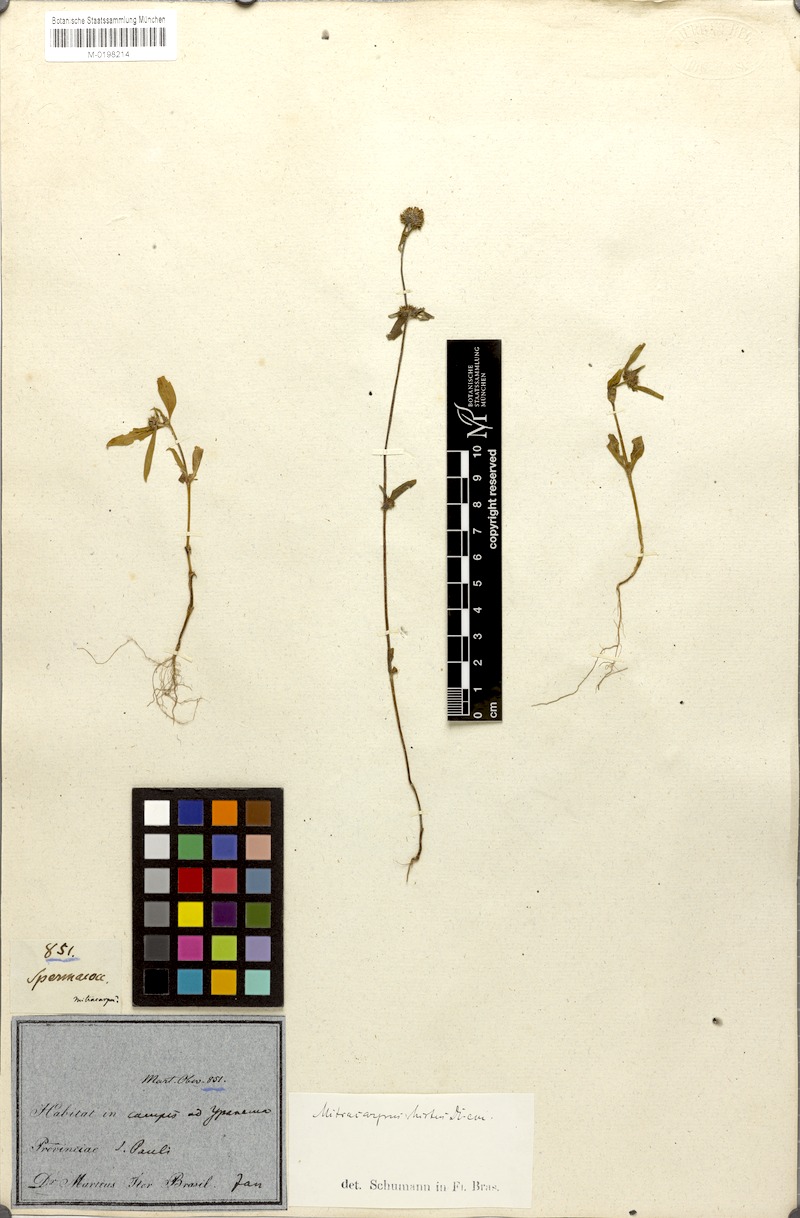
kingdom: Plantae
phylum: Tracheophyta
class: Magnoliopsida
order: Gentianales
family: Rubiaceae
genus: Mitracarpus
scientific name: Mitracarpus hirtus
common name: Tropical girdlepod
